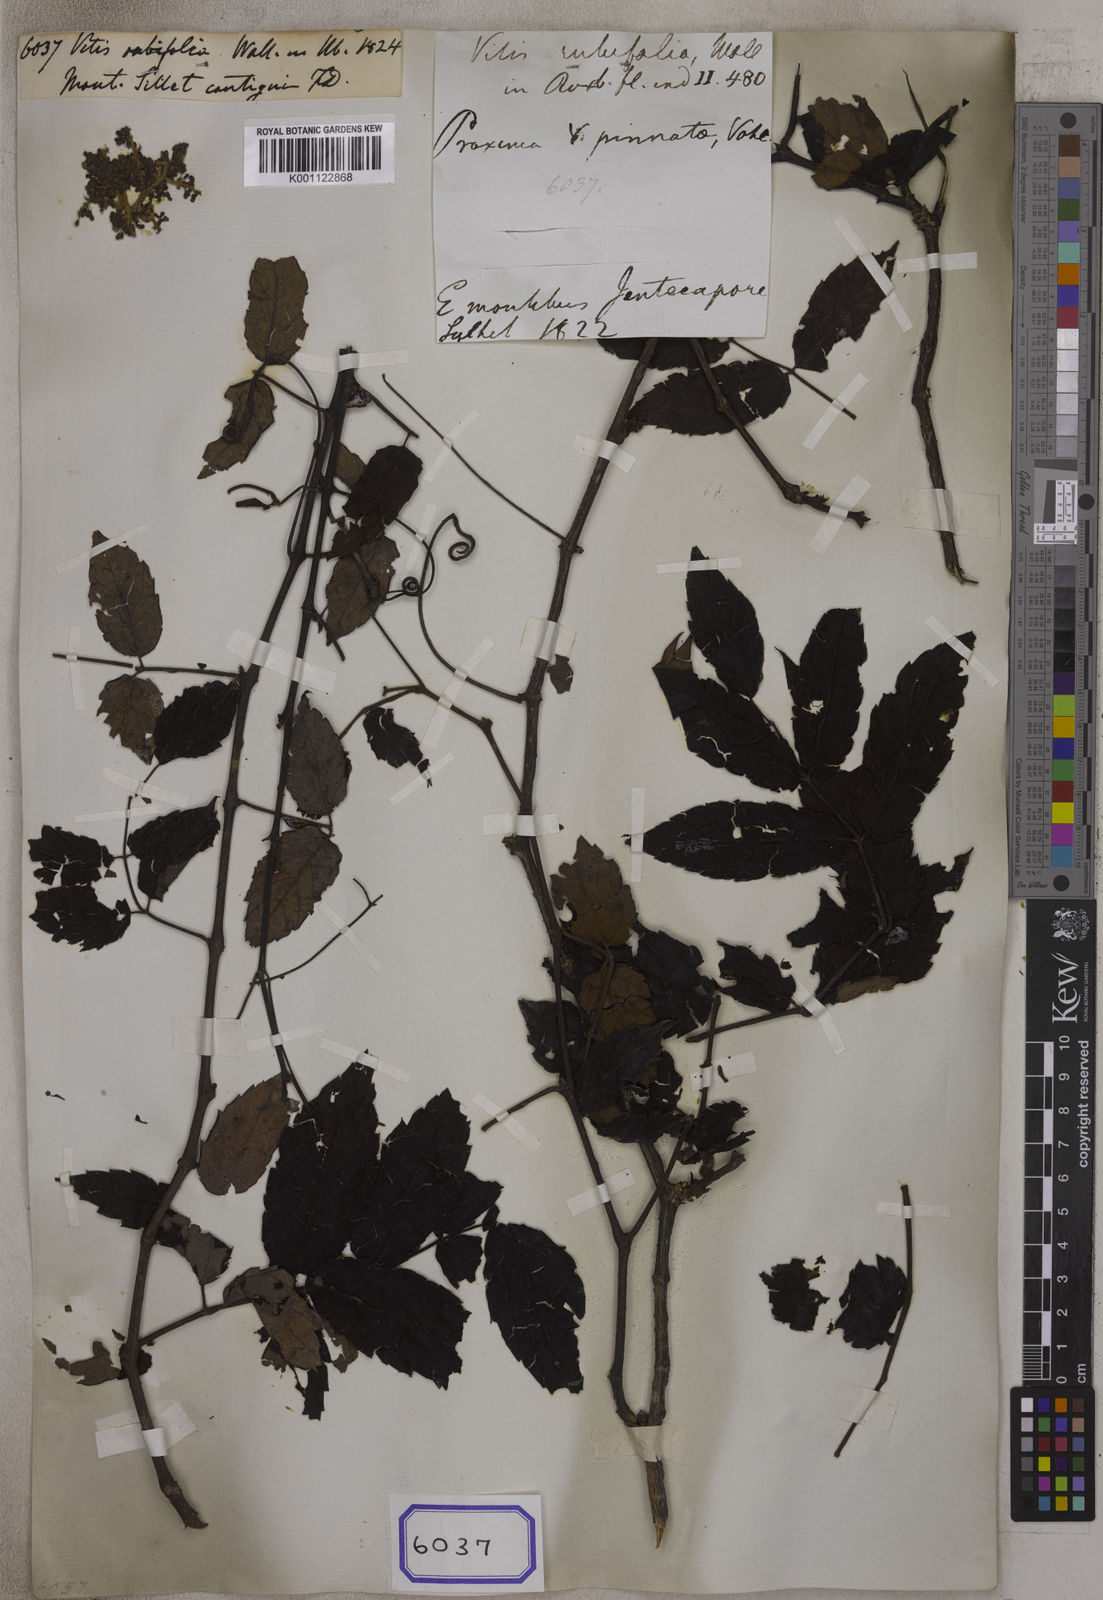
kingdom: Plantae
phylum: Tracheophyta
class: Magnoliopsida
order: Vitales
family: Vitaceae
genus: Vitis
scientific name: Vitis
